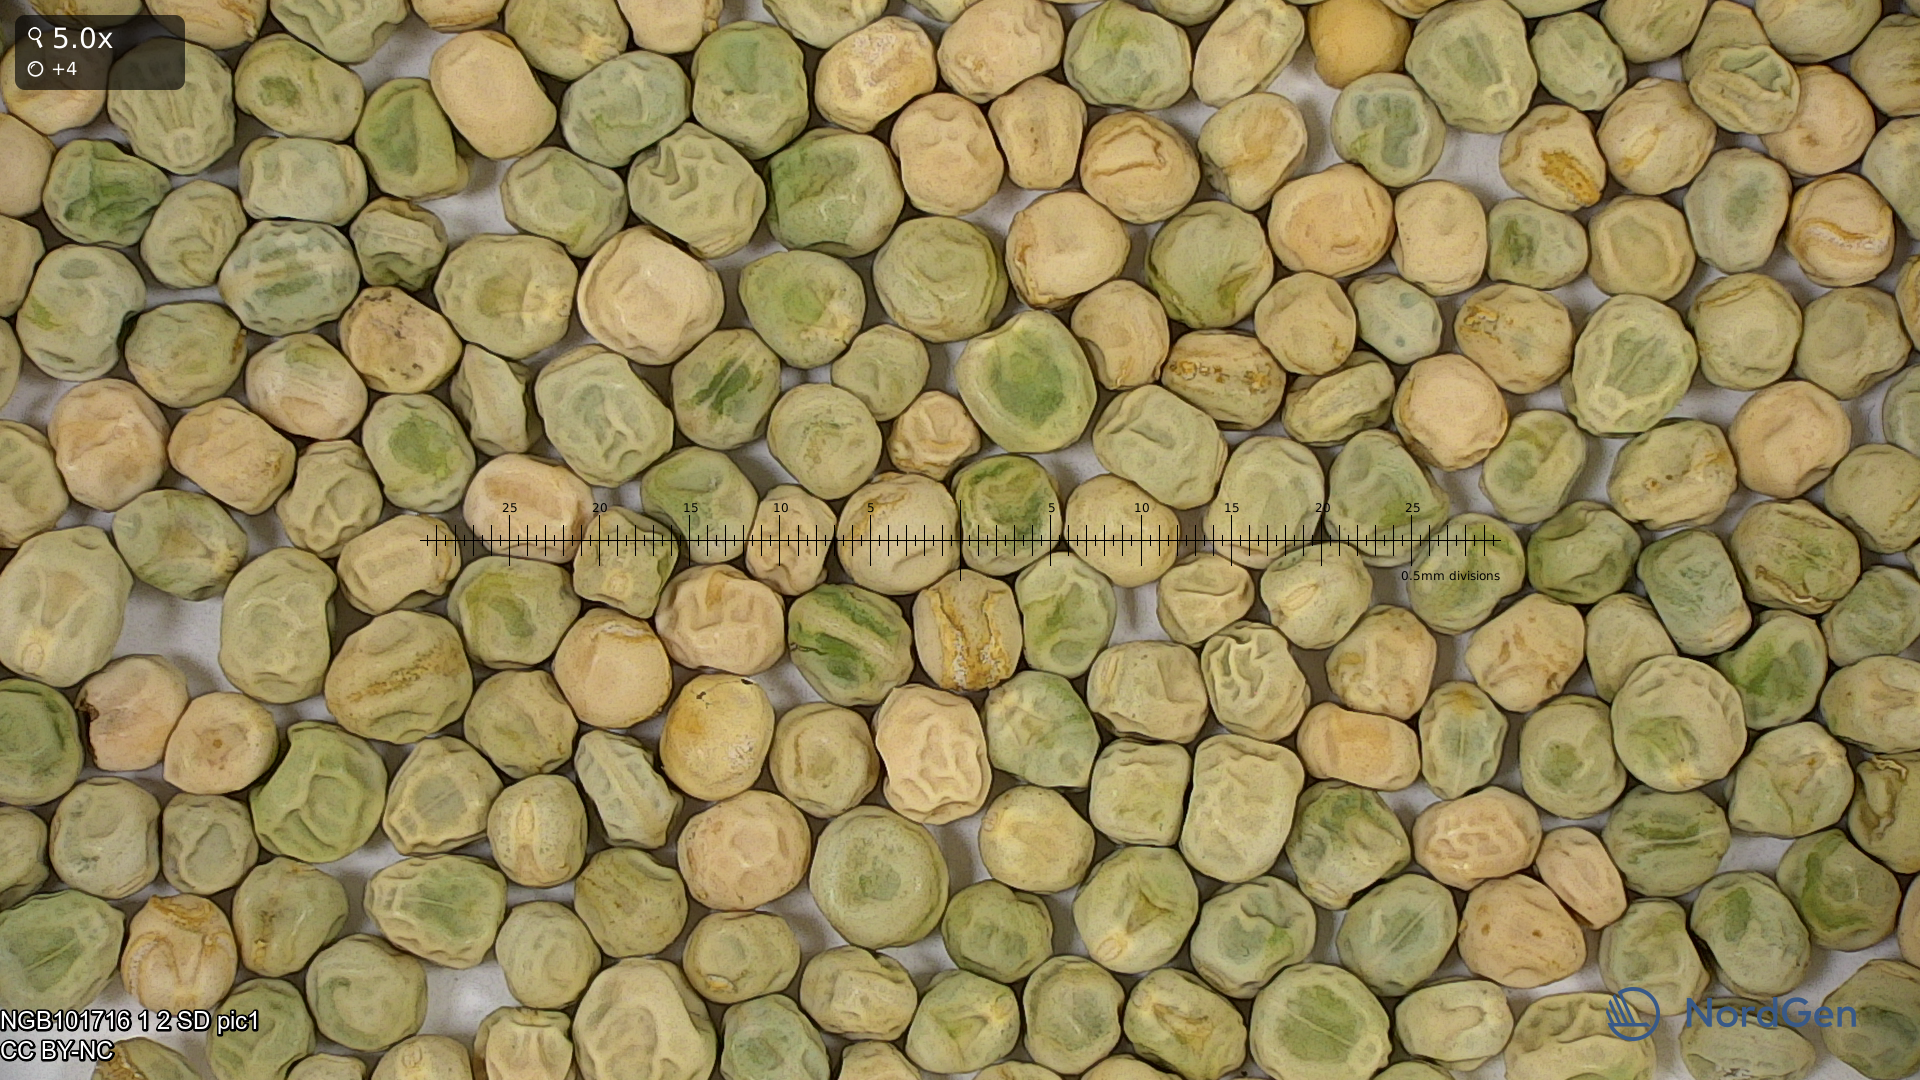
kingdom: Plantae
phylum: Tracheophyta
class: Magnoliopsida
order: Fabales
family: Fabaceae
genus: Lathyrus
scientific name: Lathyrus oleraceus
